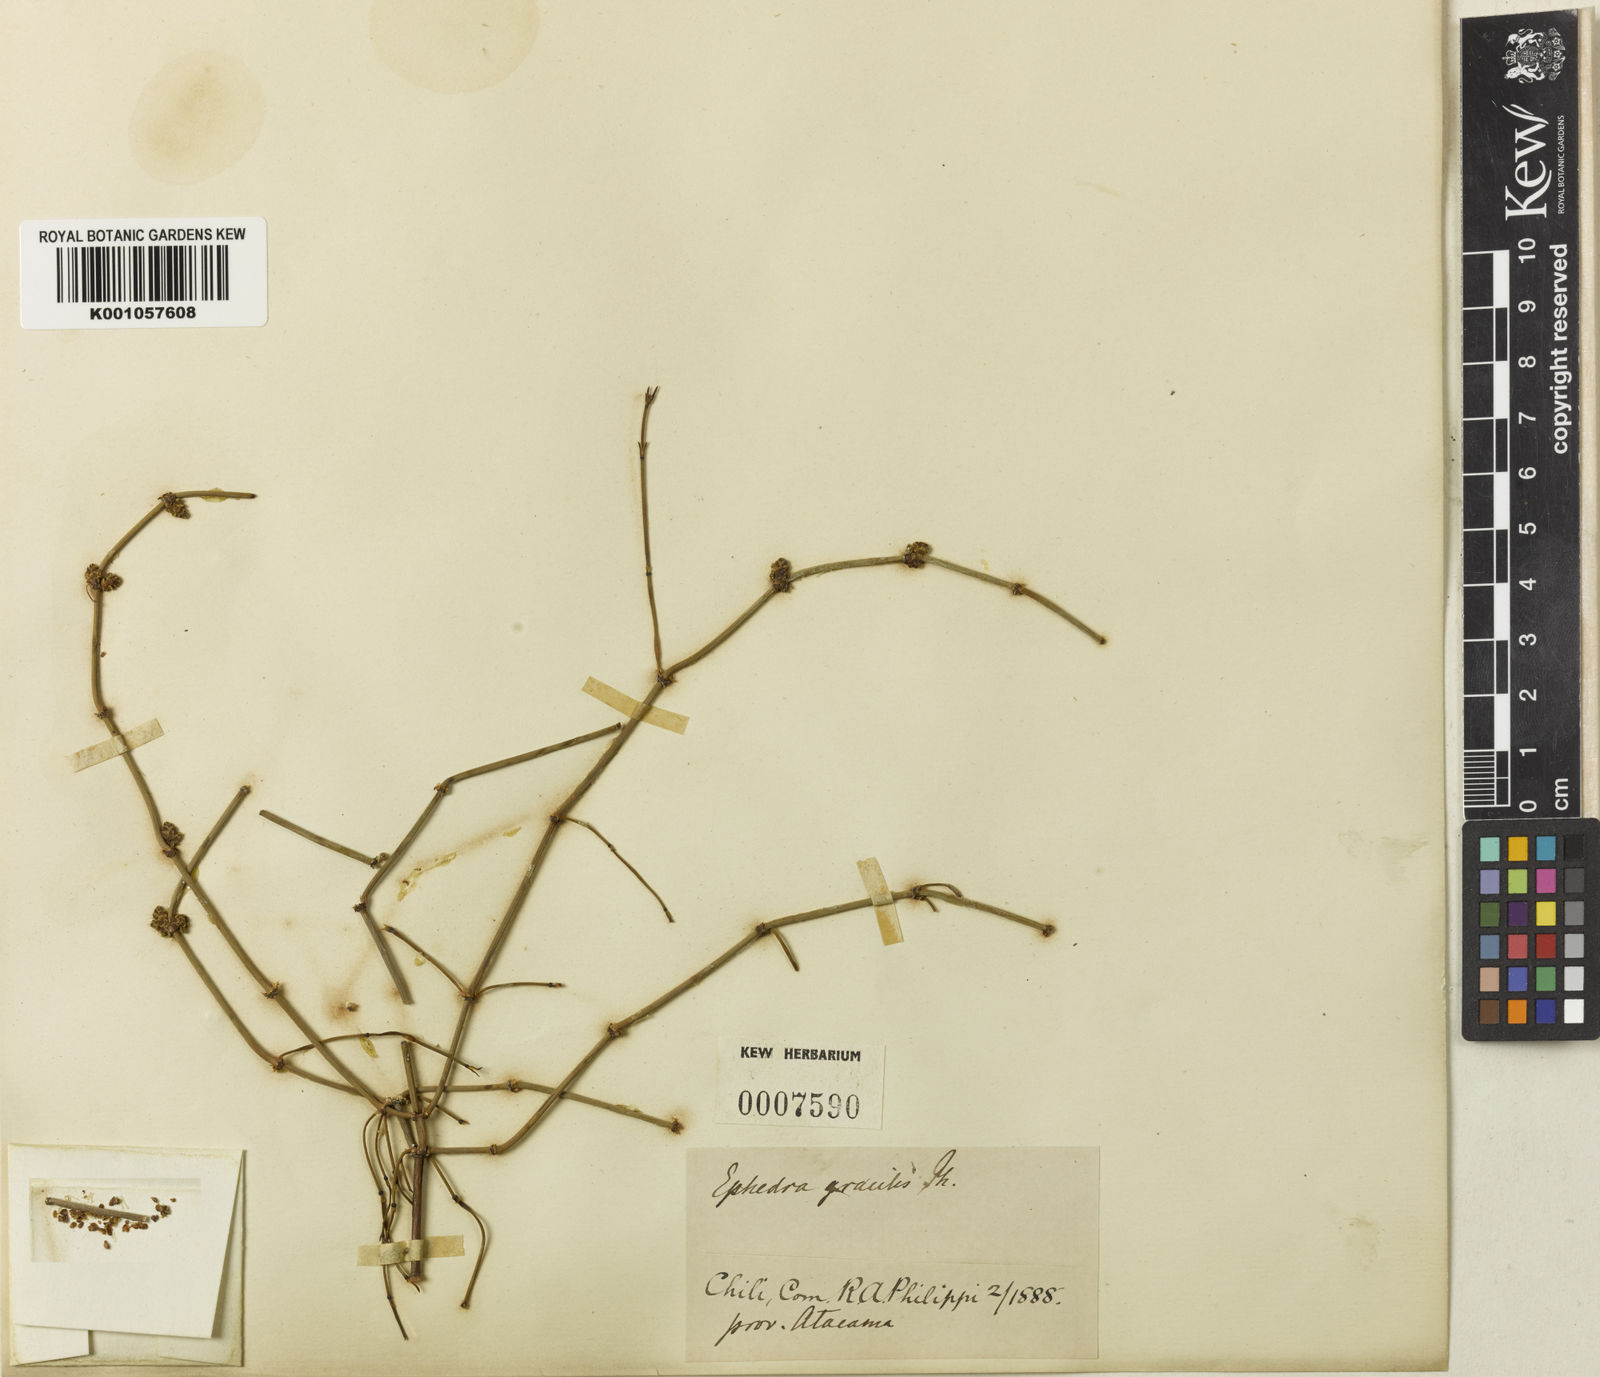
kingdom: Plantae
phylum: Tracheophyta
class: Gnetopsida
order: Ephedrales
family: Ephedraceae
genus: Ephedra
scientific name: Ephedra
